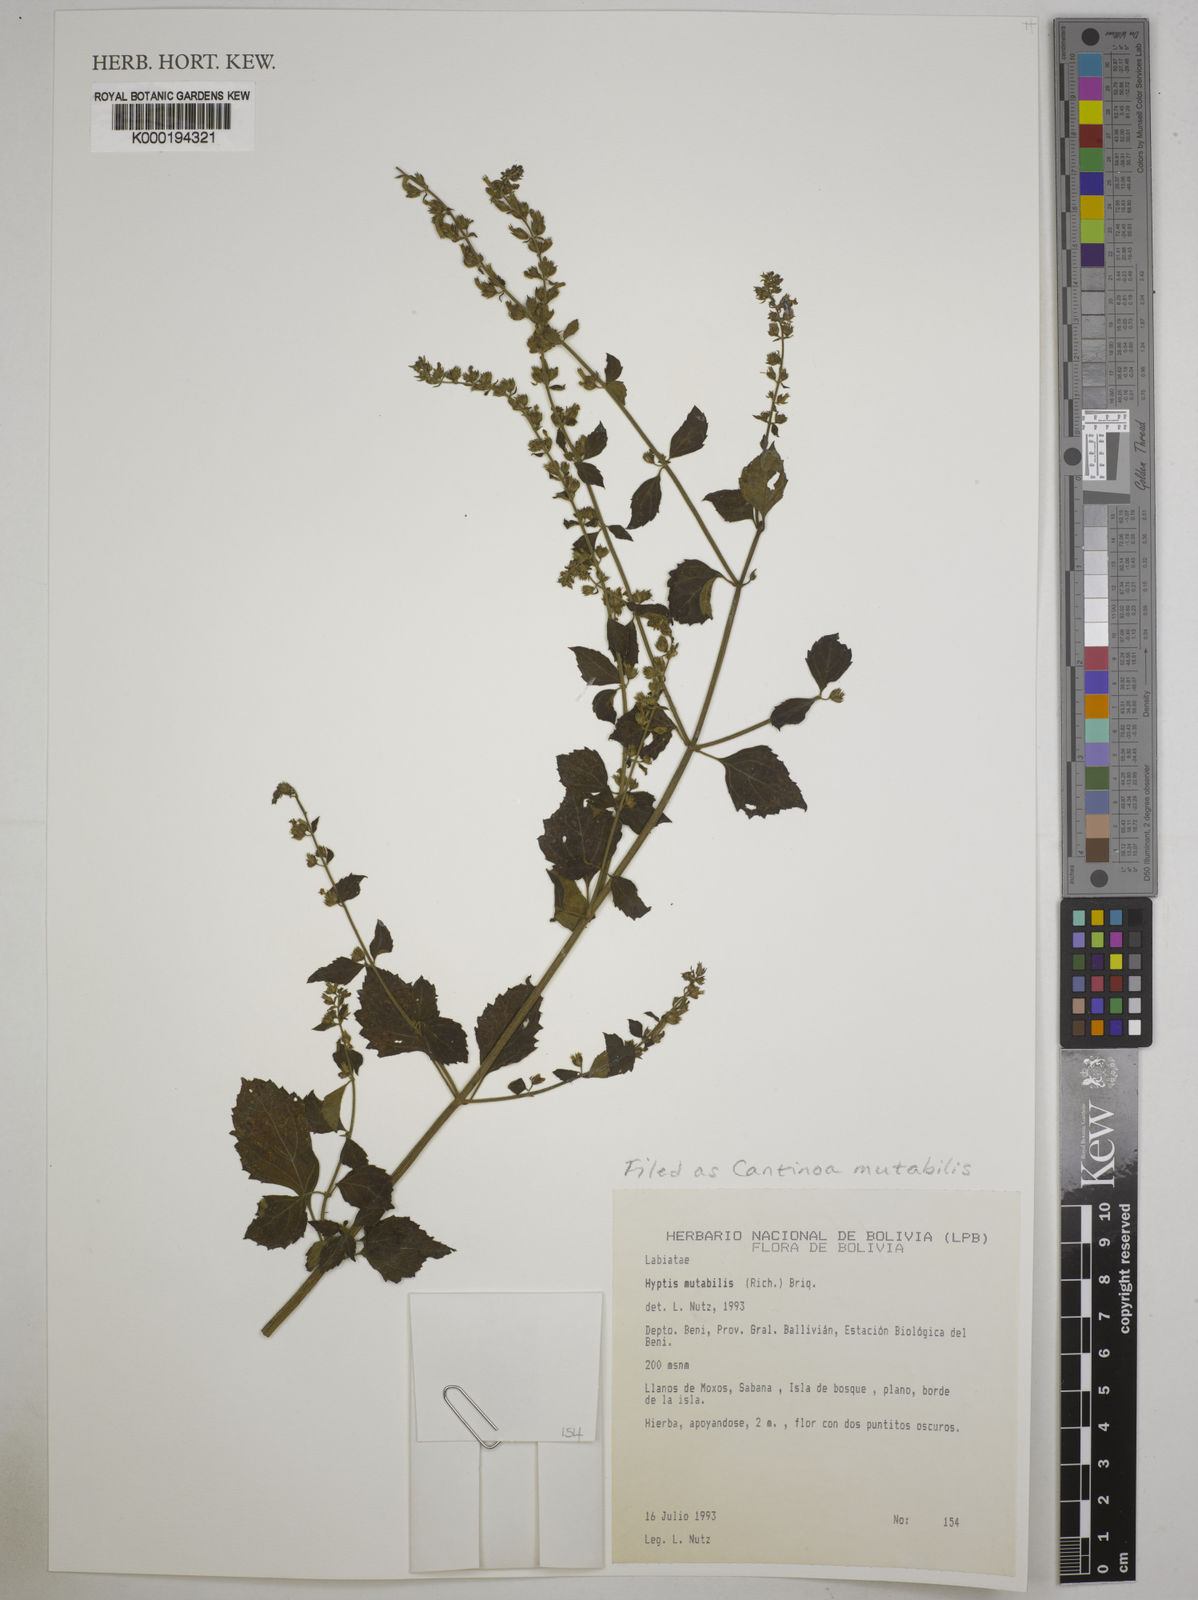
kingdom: Plantae
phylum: Tracheophyta
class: Magnoliopsida
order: Lamiales
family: Lamiaceae
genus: Cantinoa
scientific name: Cantinoa mutabilis
